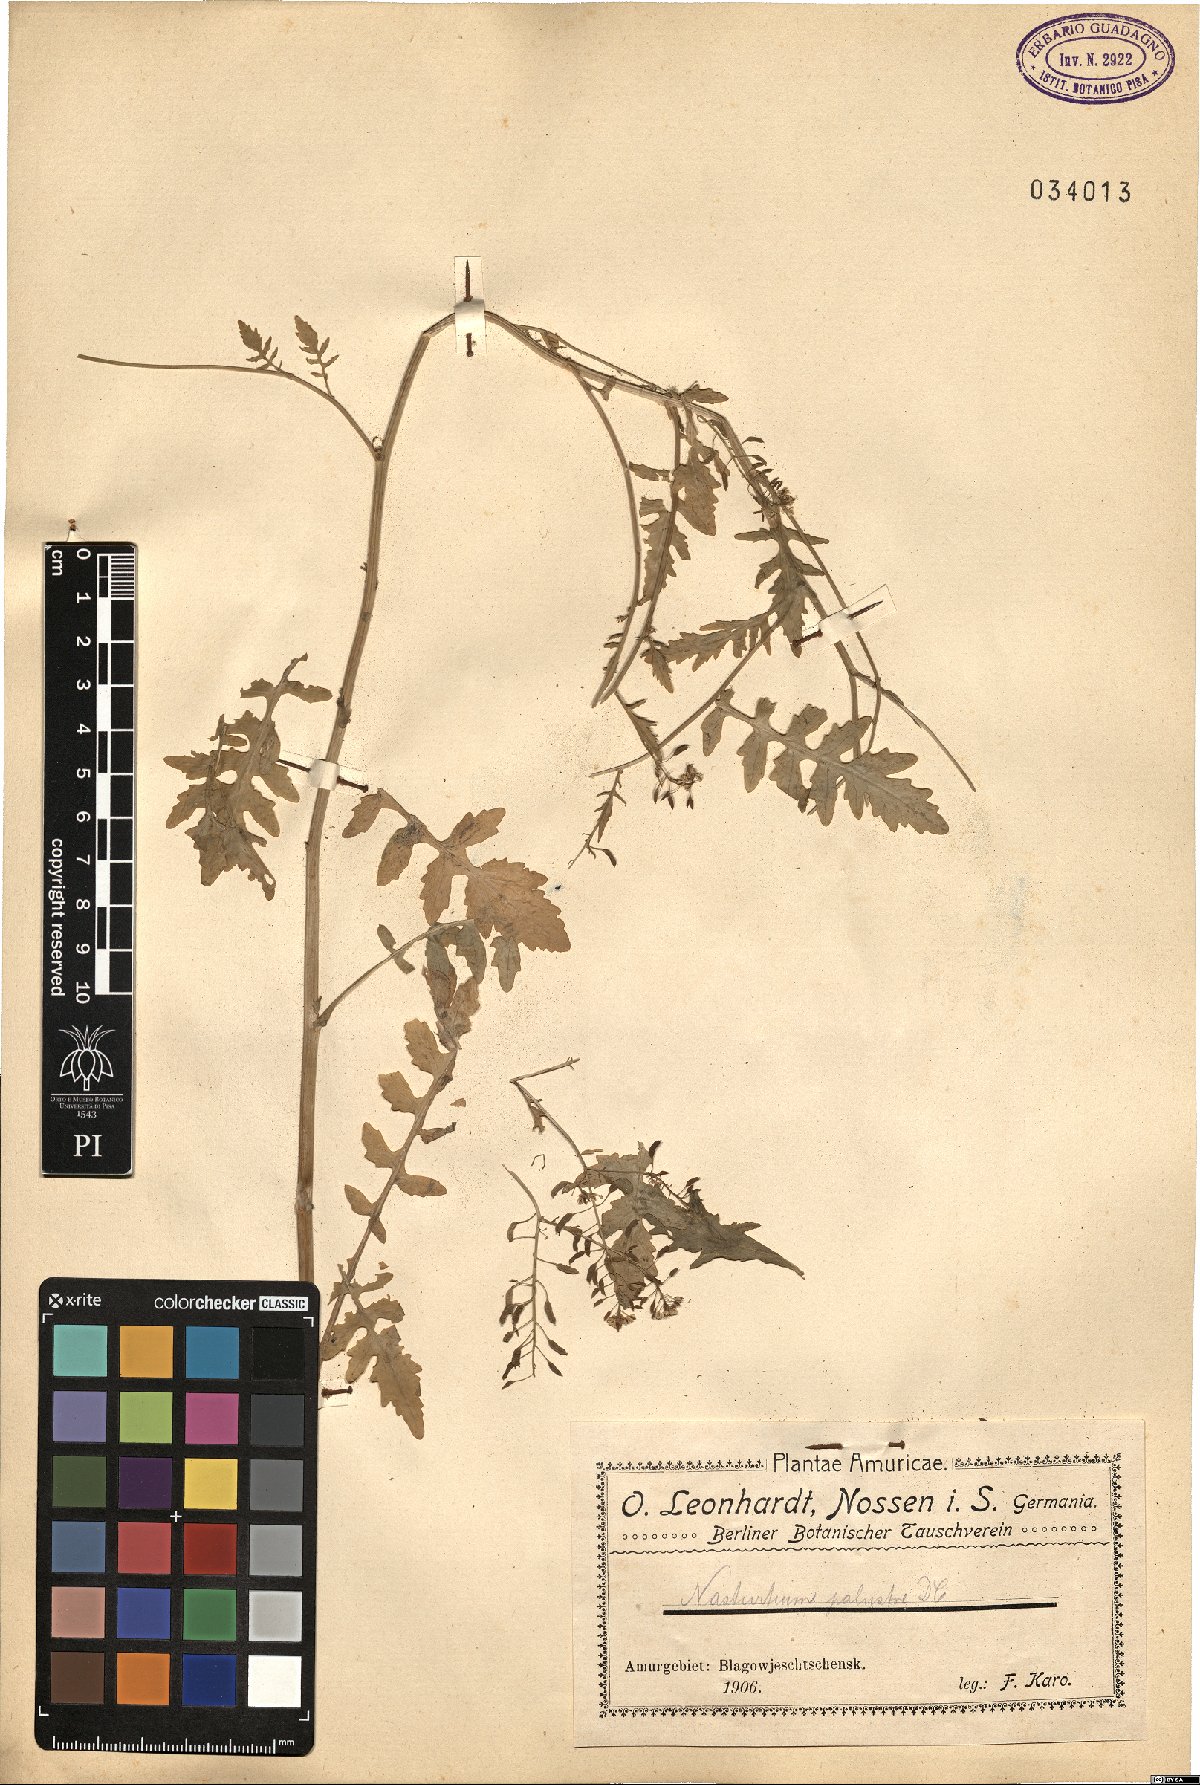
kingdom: Plantae
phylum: Tracheophyta
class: Magnoliopsida
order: Brassicales
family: Brassicaceae
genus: Rorippa
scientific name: Rorippa palustris
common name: Marsh yellow-cress
